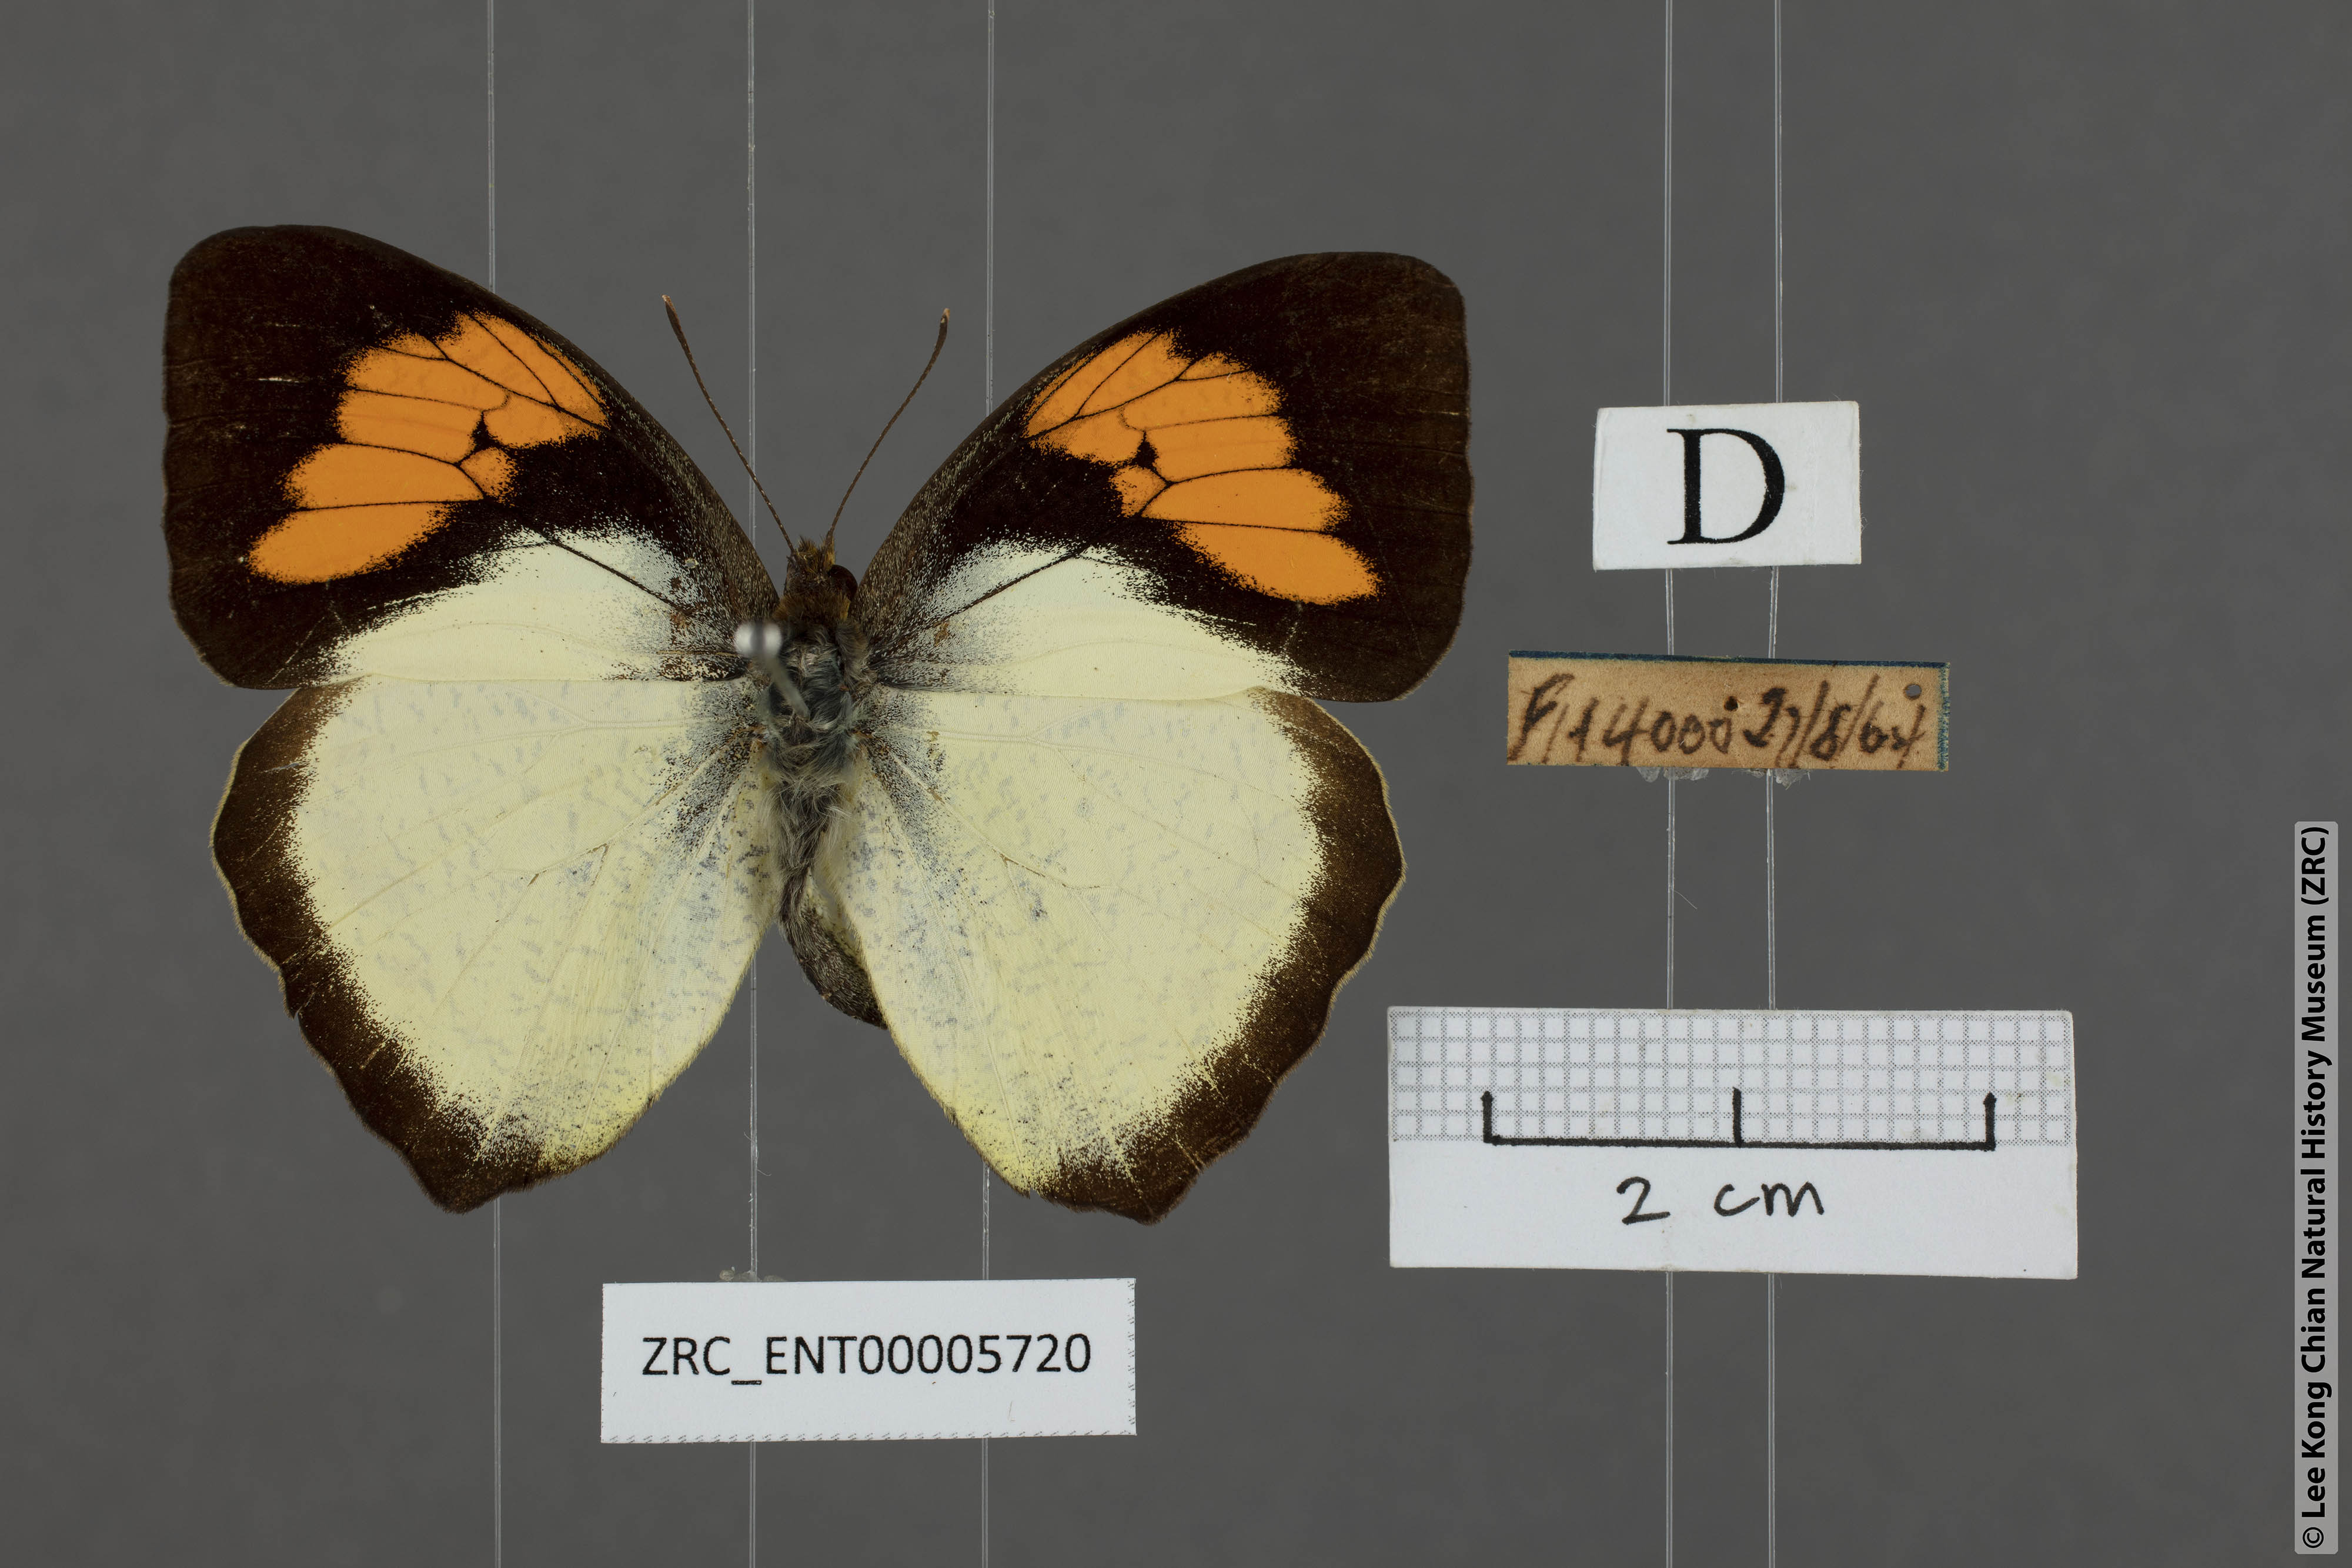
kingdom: Animalia
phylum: Arthropoda
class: Insecta
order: Lepidoptera
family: Pieridae
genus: Ixias
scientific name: Ixias pyrene
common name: Yellow orange tip
